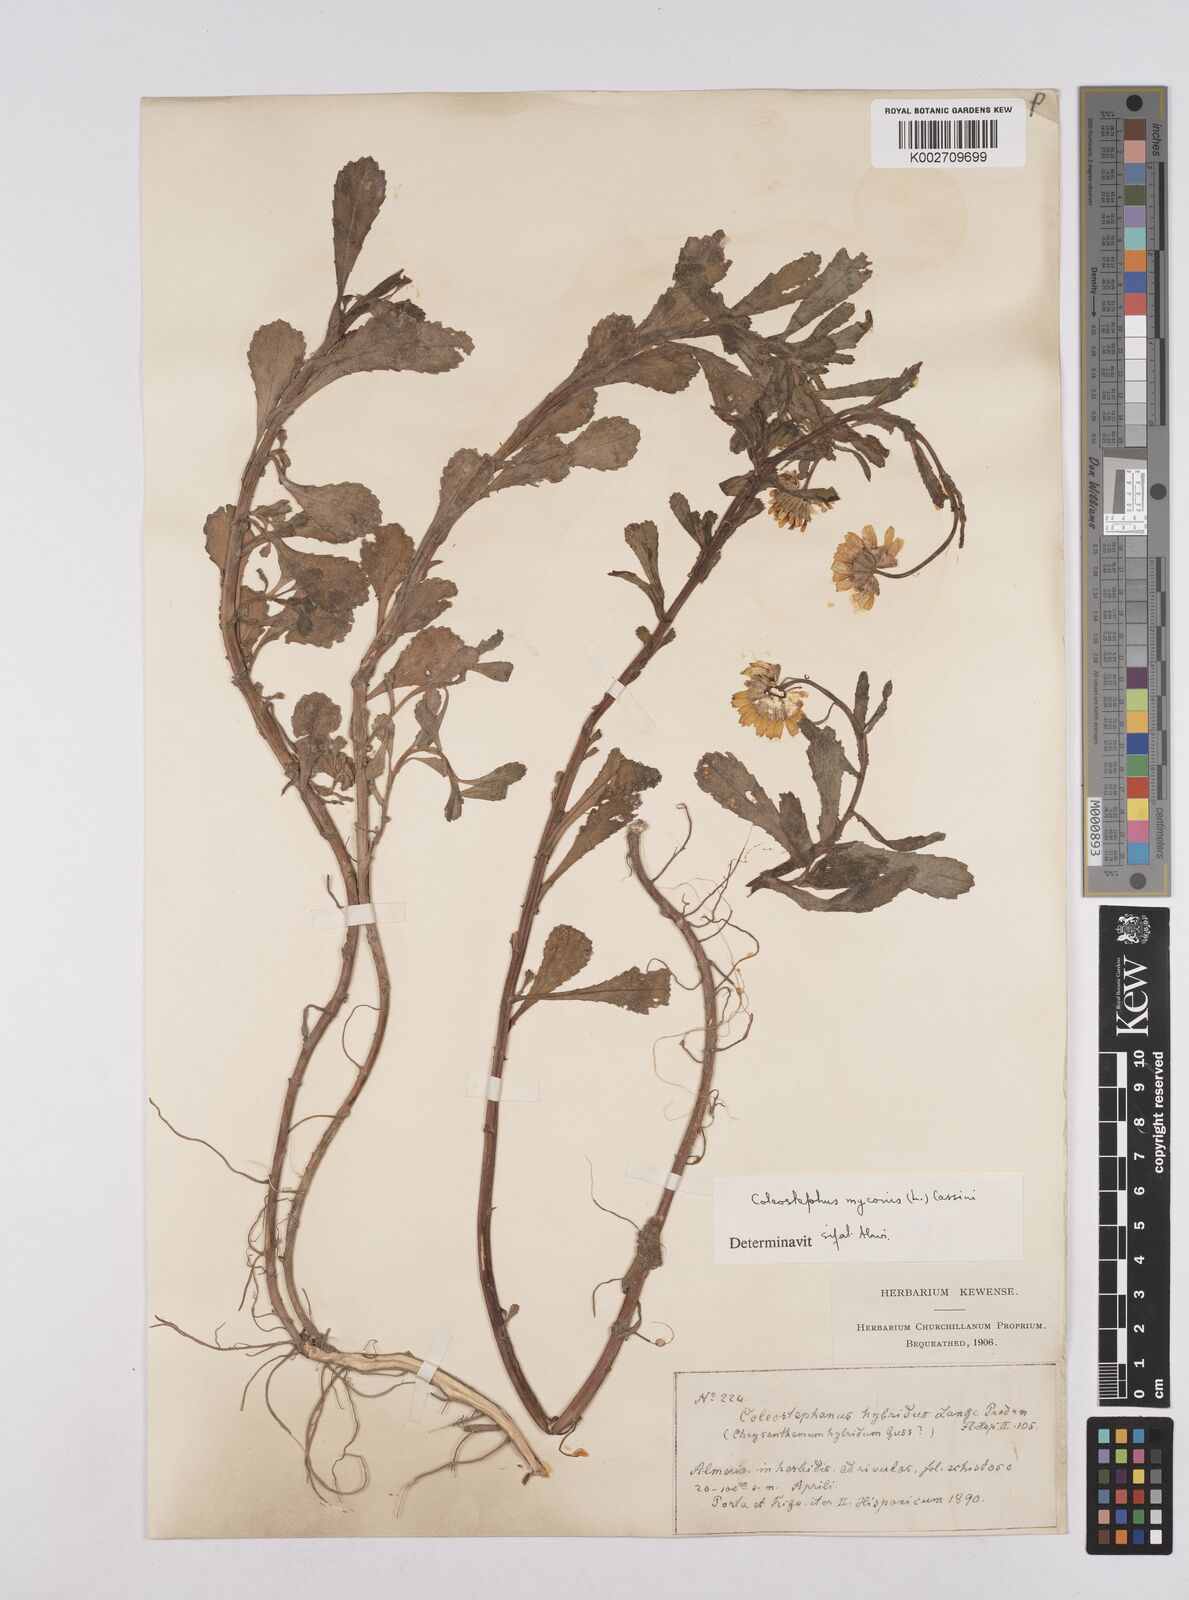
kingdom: Plantae
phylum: Tracheophyta
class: Magnoliopsida
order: Asterales
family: Asteraceae
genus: Coleostephus
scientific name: Coleostephus paludosus
